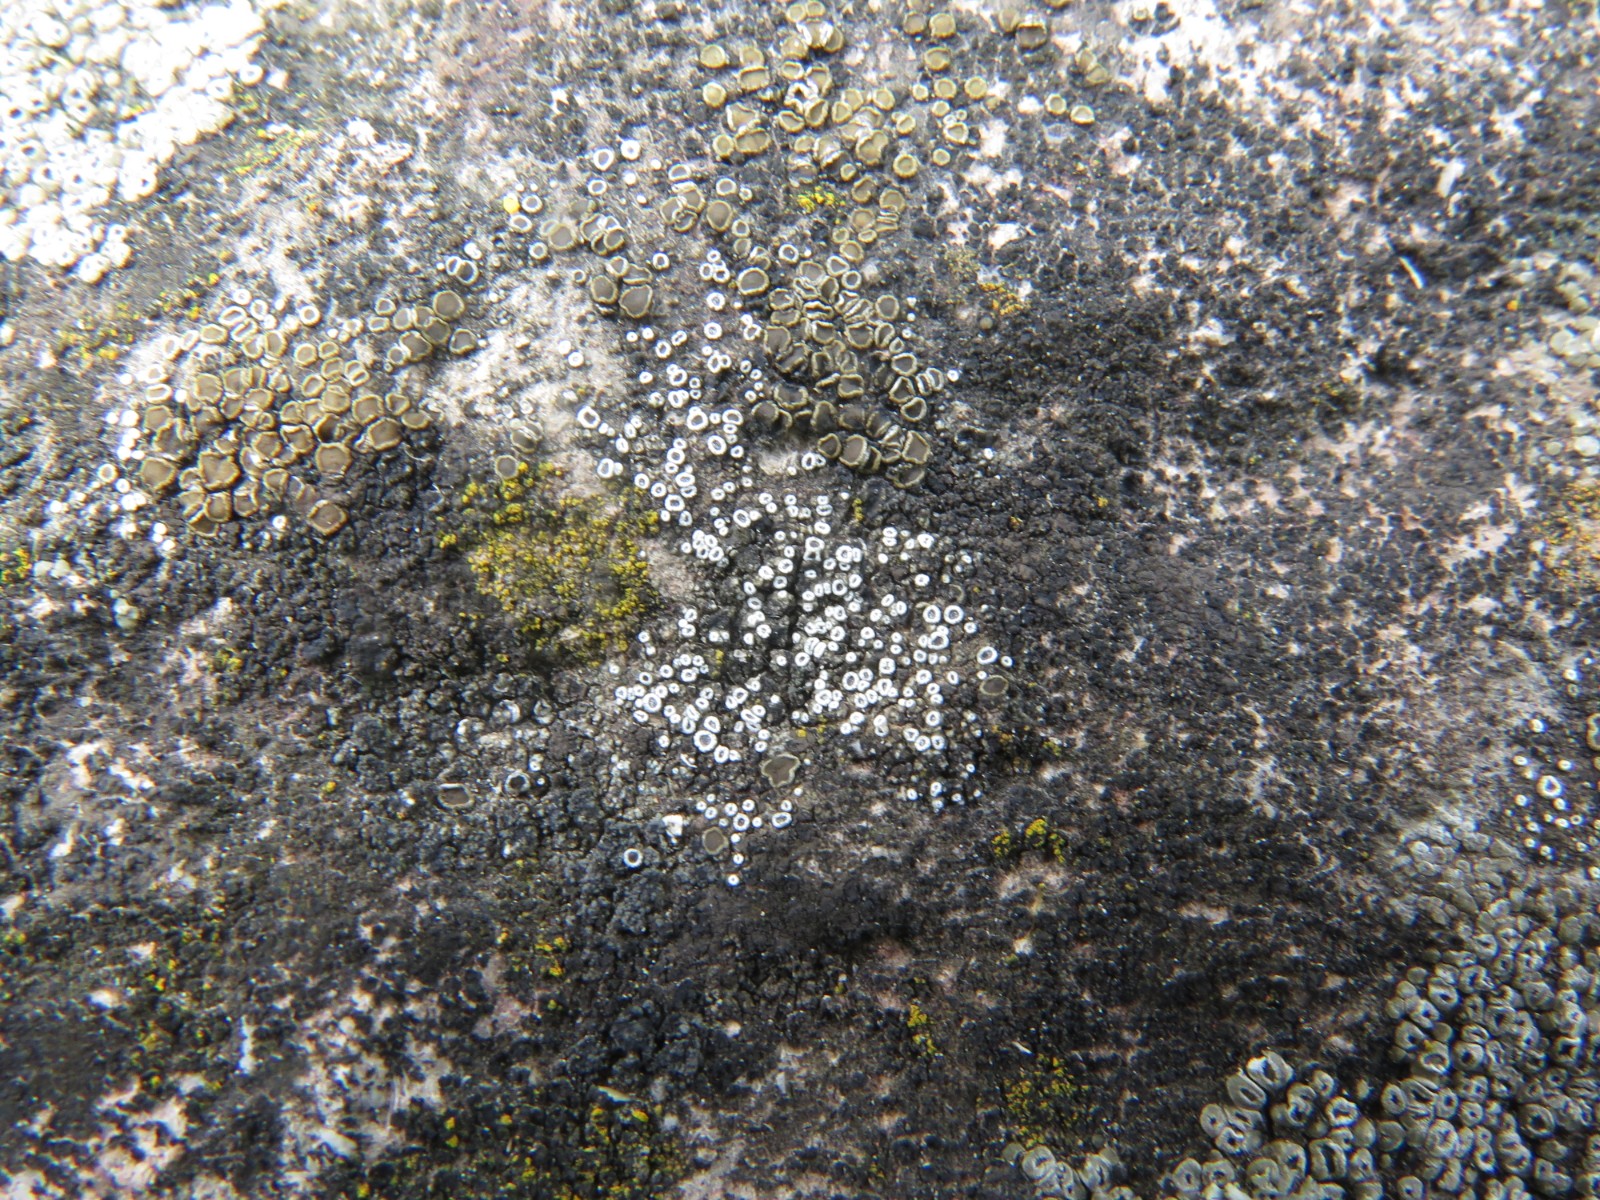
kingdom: Fungi
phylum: Ascomycota
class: Lecanoromycetes
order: Lecanorales
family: Lecanoraceae
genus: Polyozosia
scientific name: Polyozosia dispersa
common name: spredt kantskivelav
